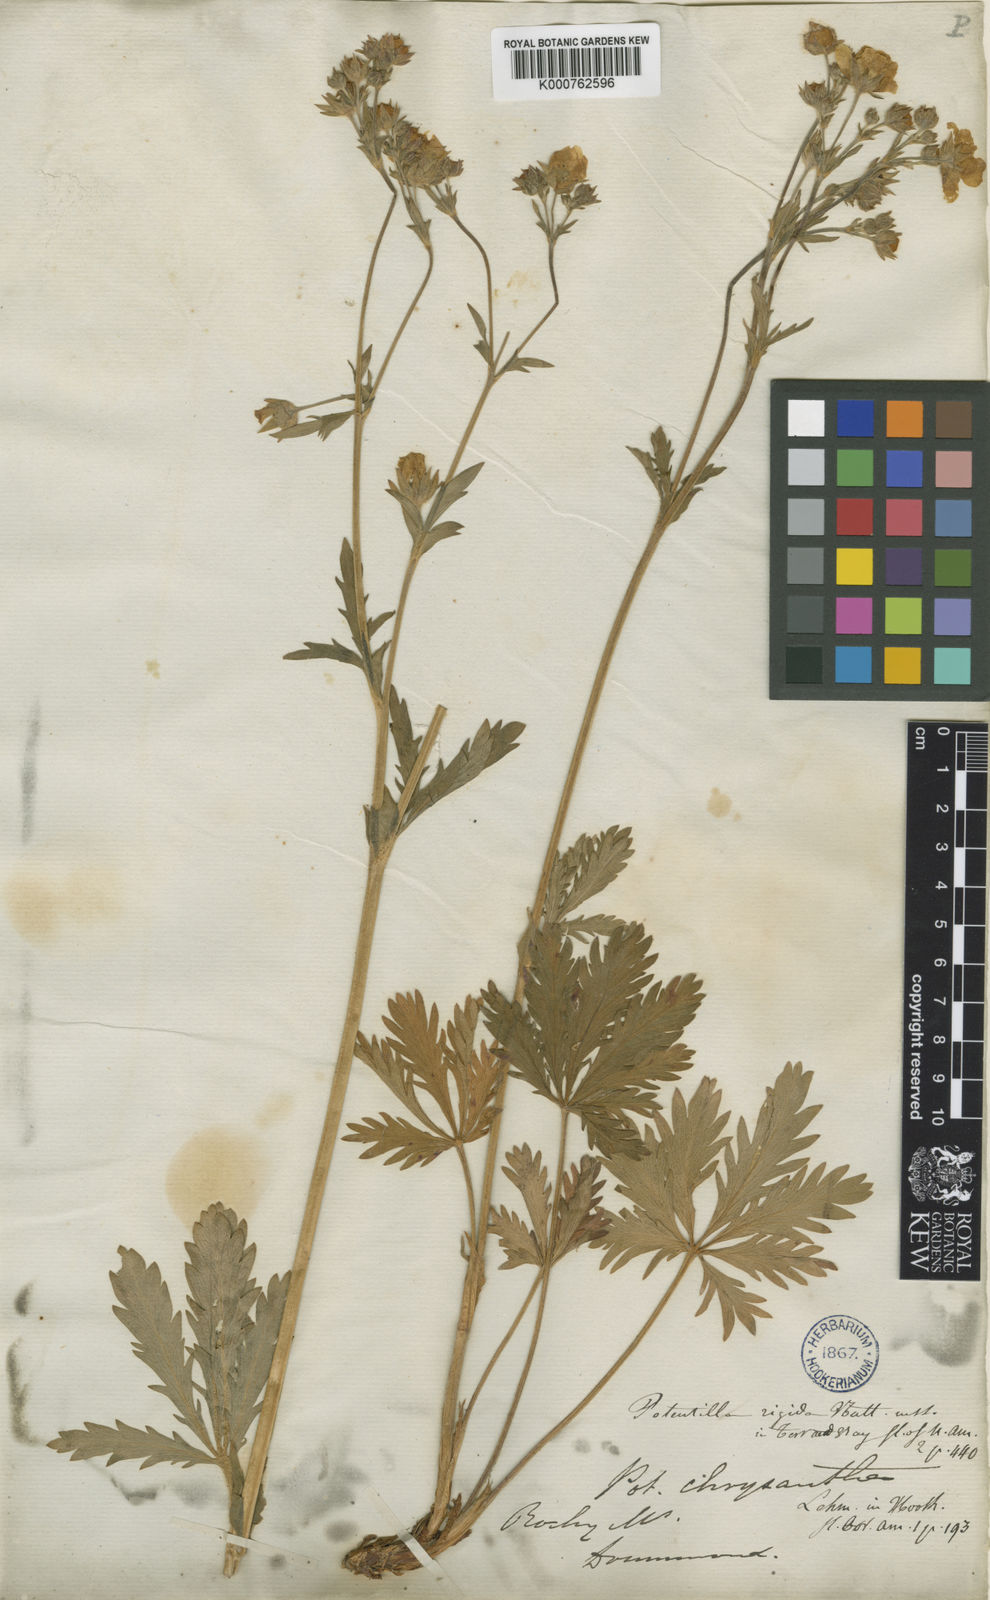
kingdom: Plantae
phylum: Tracheophyta
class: Magnoliopsida
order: Rosales
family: Rosaceae
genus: Potentilla
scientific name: Potentilla gracilis
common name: Graceful cinquefoil
